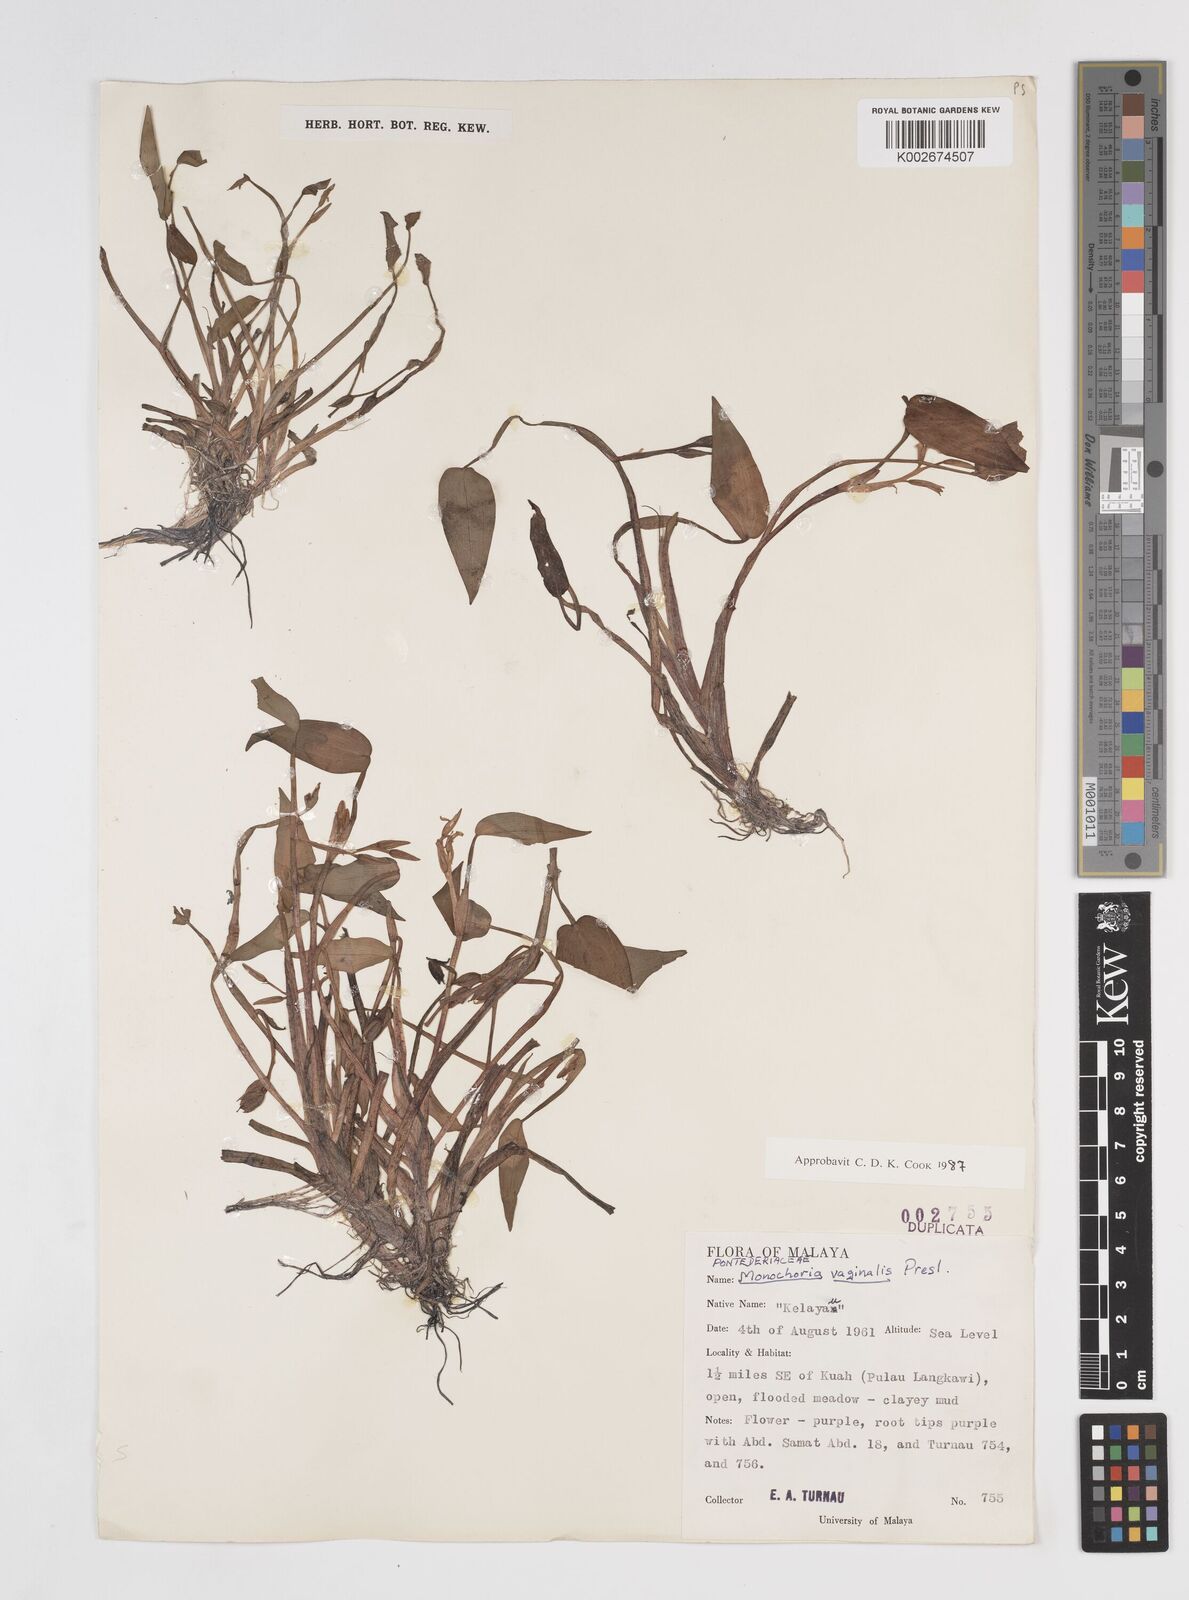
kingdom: Plantae
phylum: Tracheophyta
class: Liliopsida
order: Commelinales
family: Pontederiaceae
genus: Pontederia
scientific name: Pontederia vaginalis
